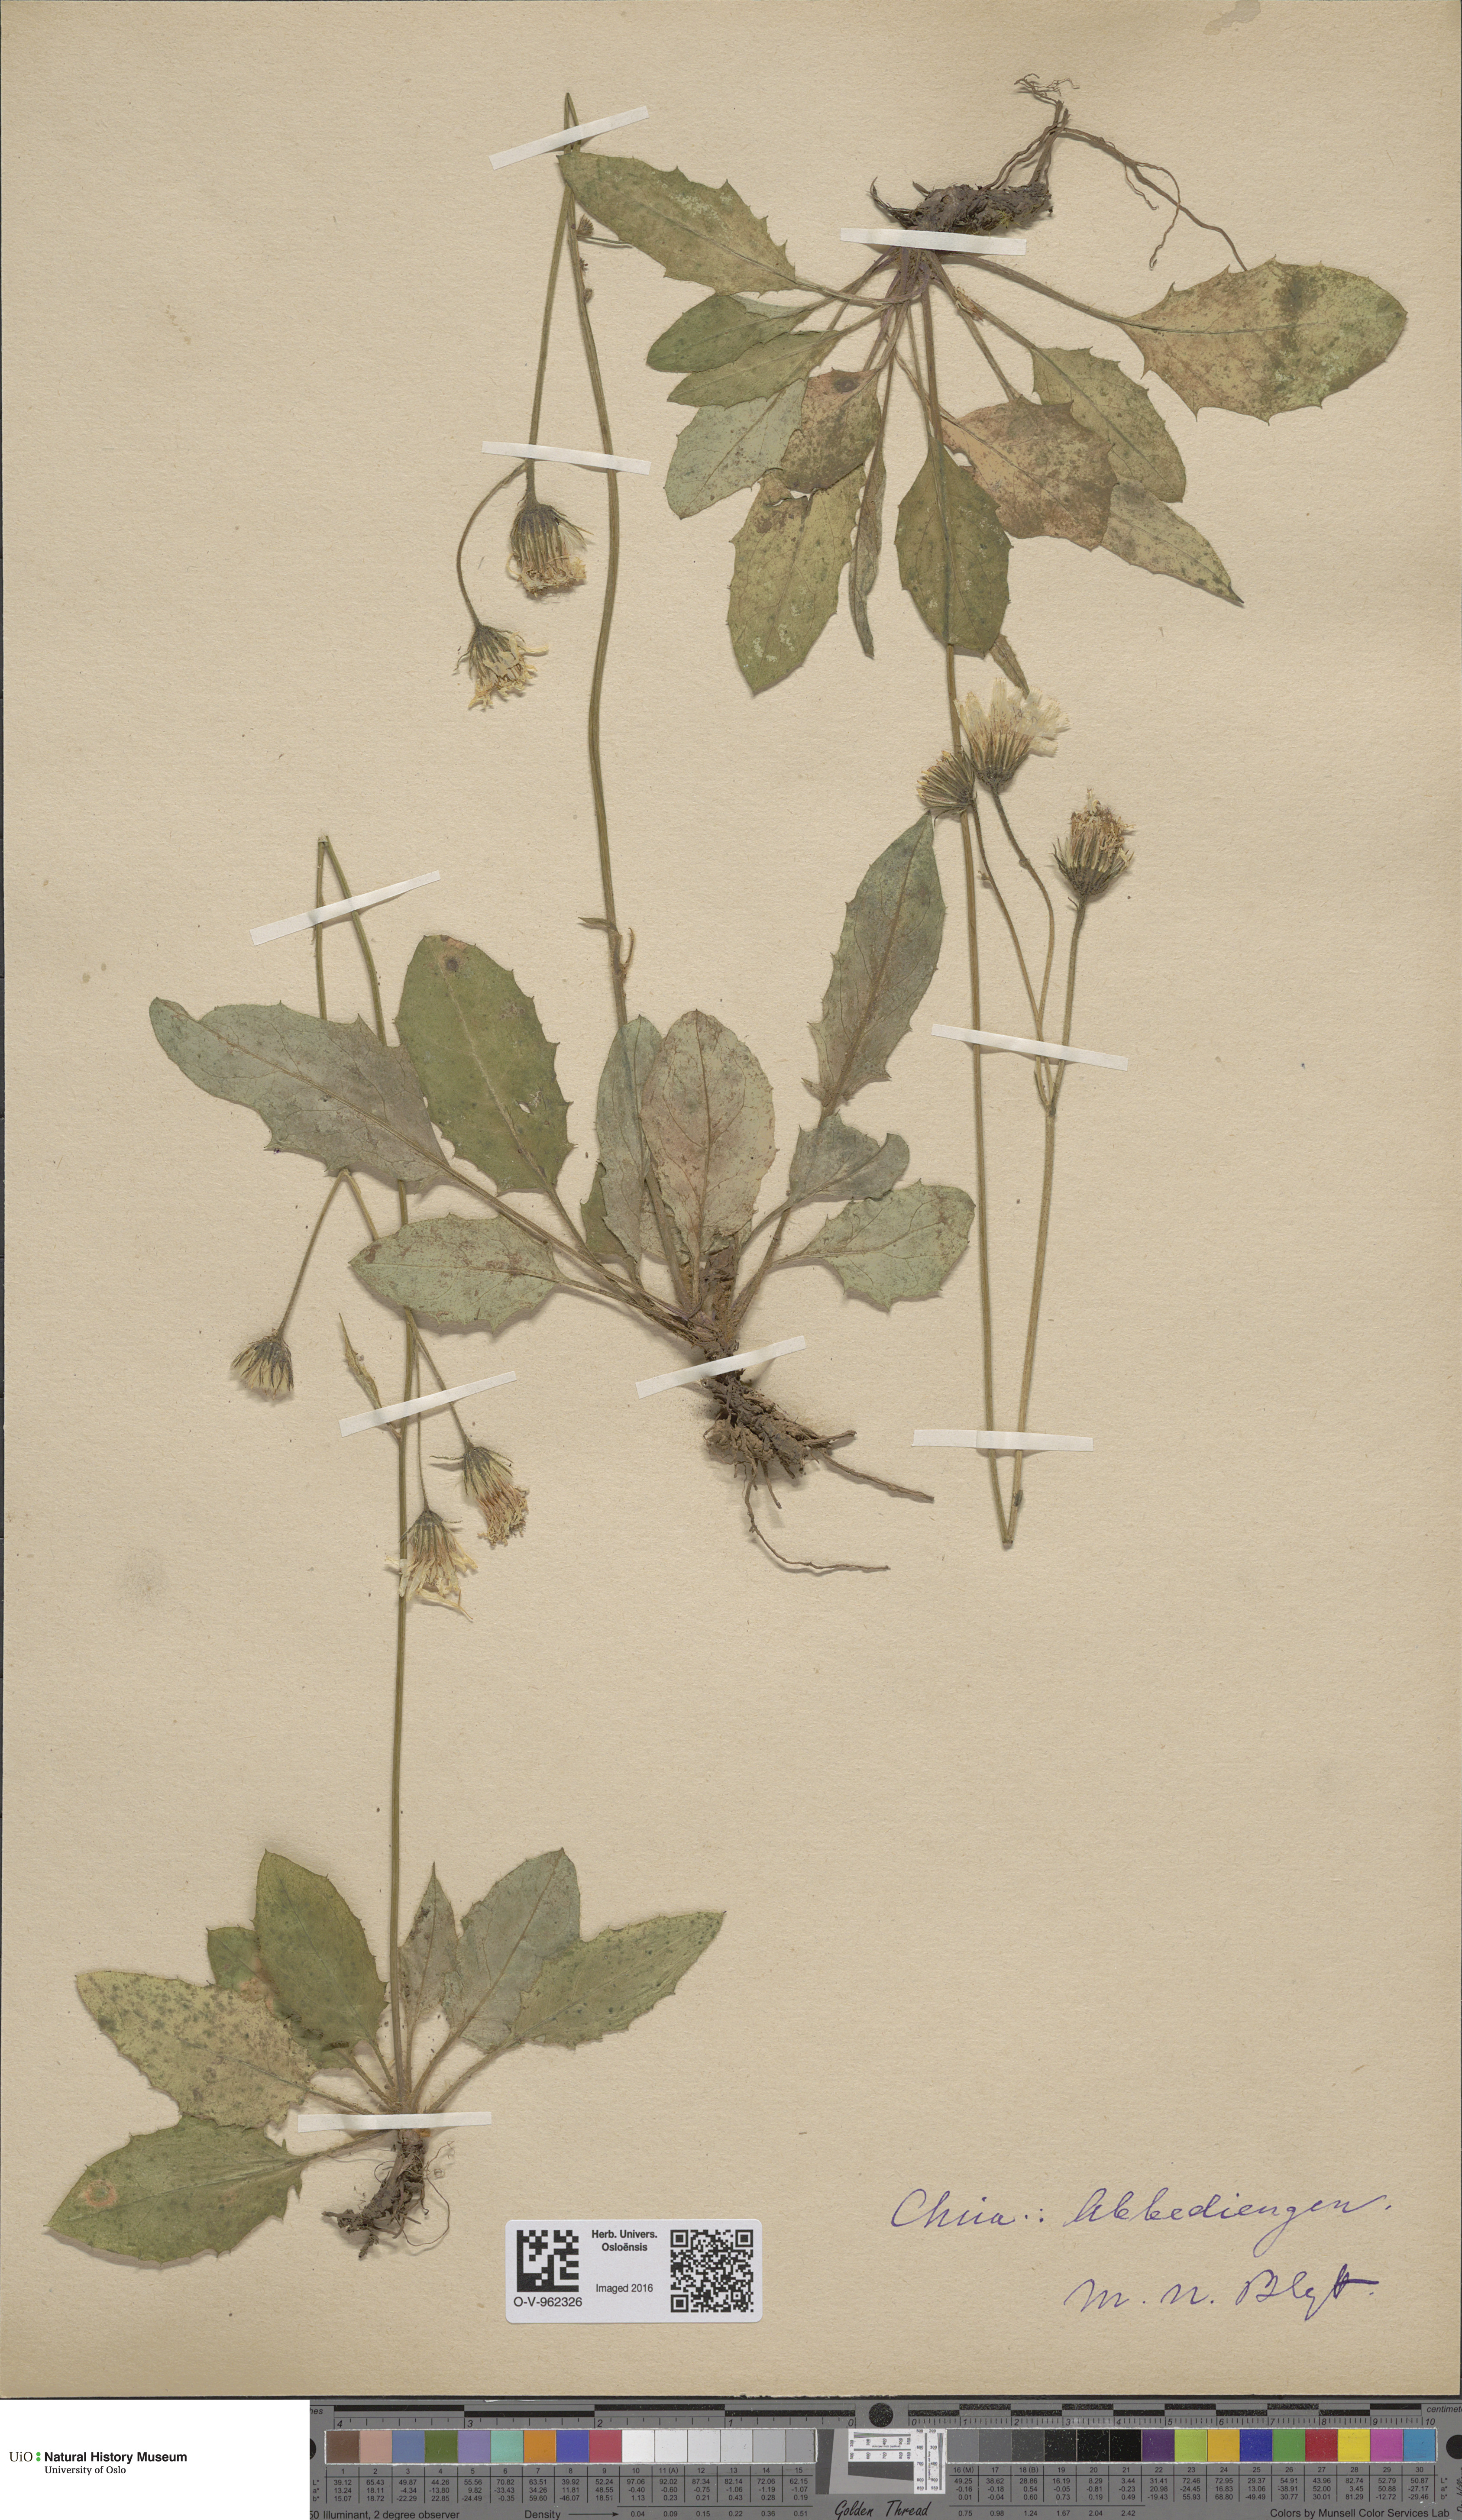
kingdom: Plantae
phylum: Tracheophyta
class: Magnoliopsida
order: Asterales
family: Asteraceae
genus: Hieracium
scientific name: Hieracium
